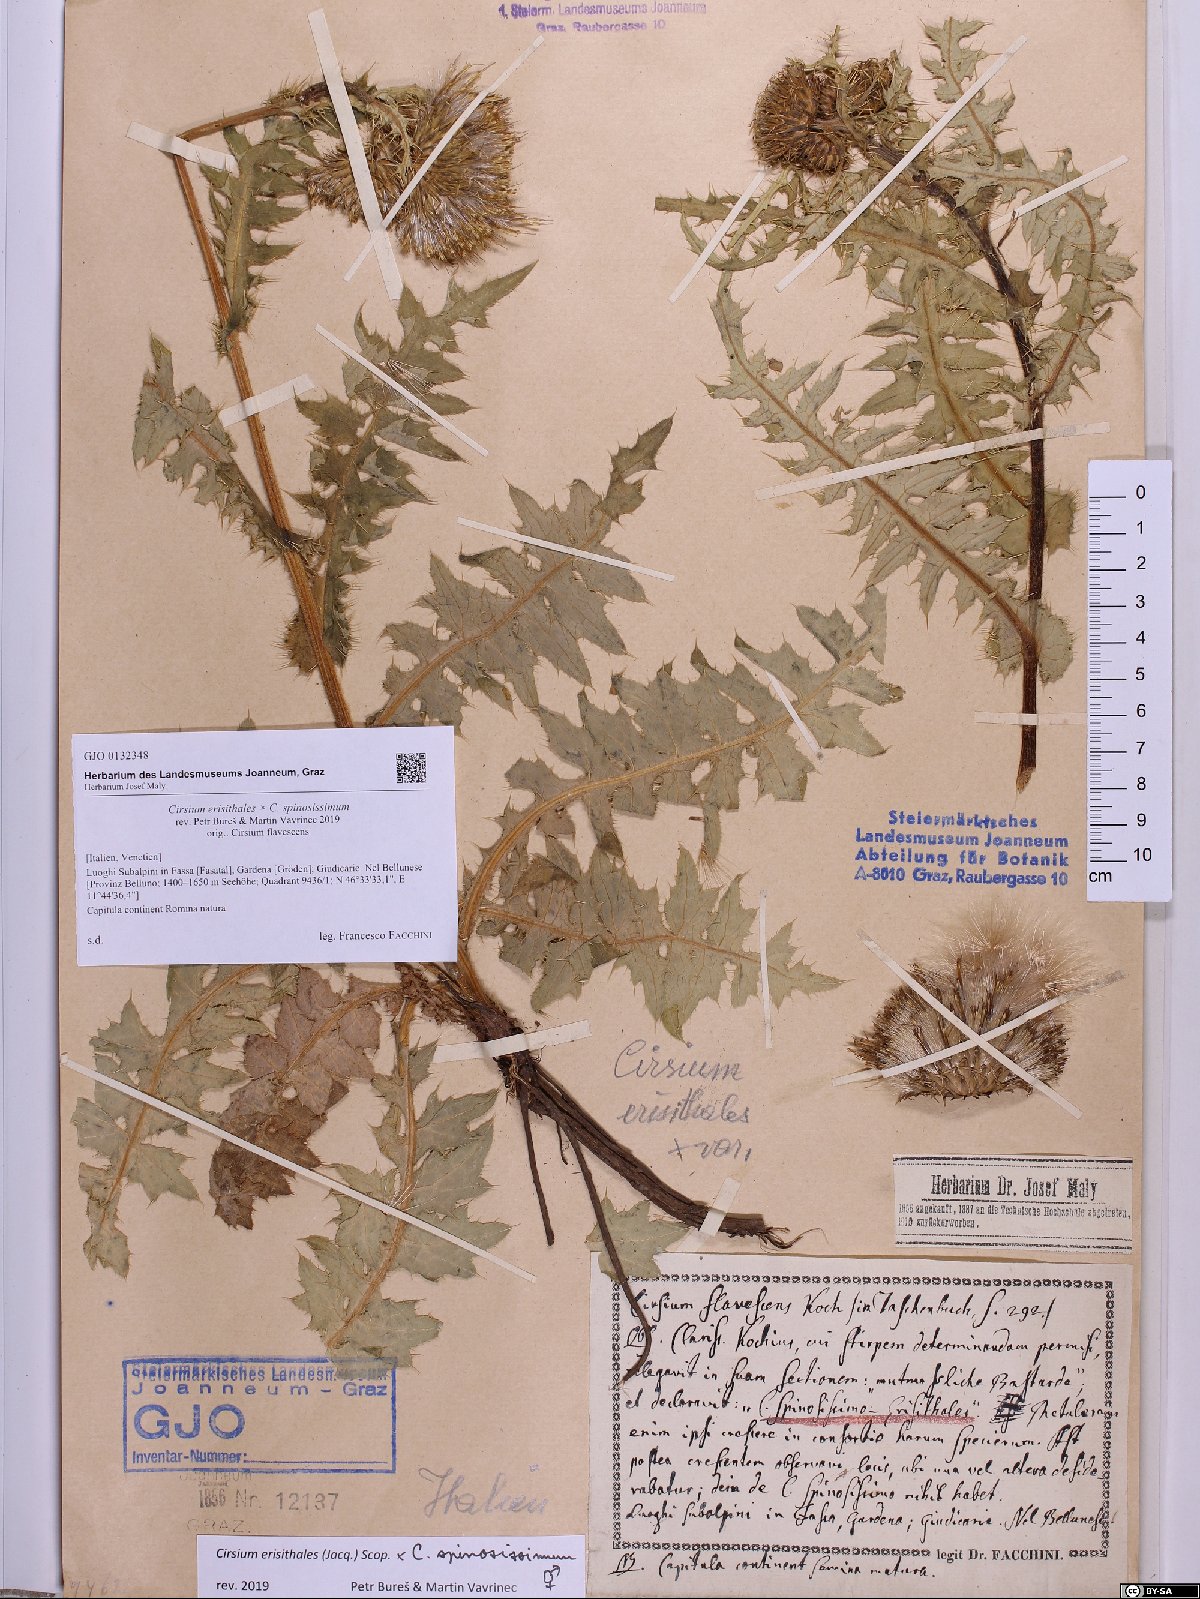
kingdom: Plantae
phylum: Tracheophyta
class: Magnoliopsida
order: Asterales
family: Asteraceae
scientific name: Asteraceae
